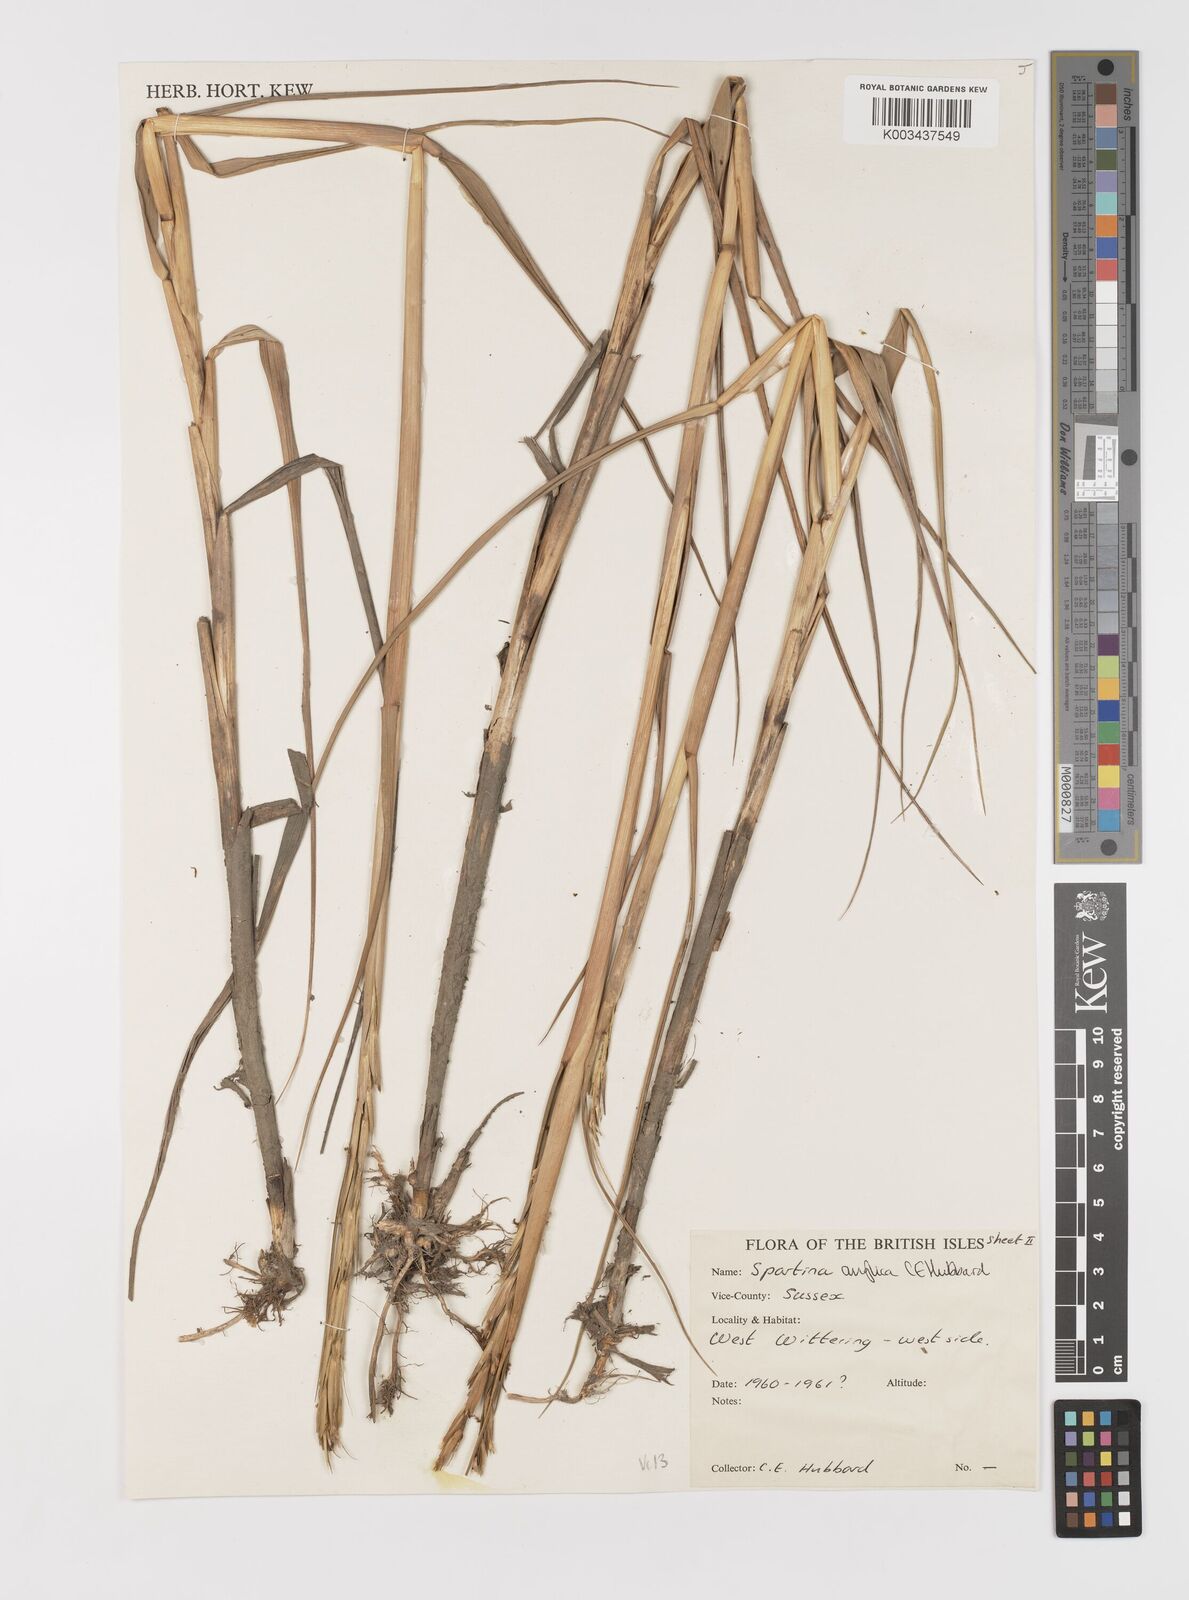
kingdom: Plantae
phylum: Tracheophyta
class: Liliopsida
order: Poales
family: Poaceae
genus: Sporobolus
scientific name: Sporobolus anglicus
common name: English cordgrass
